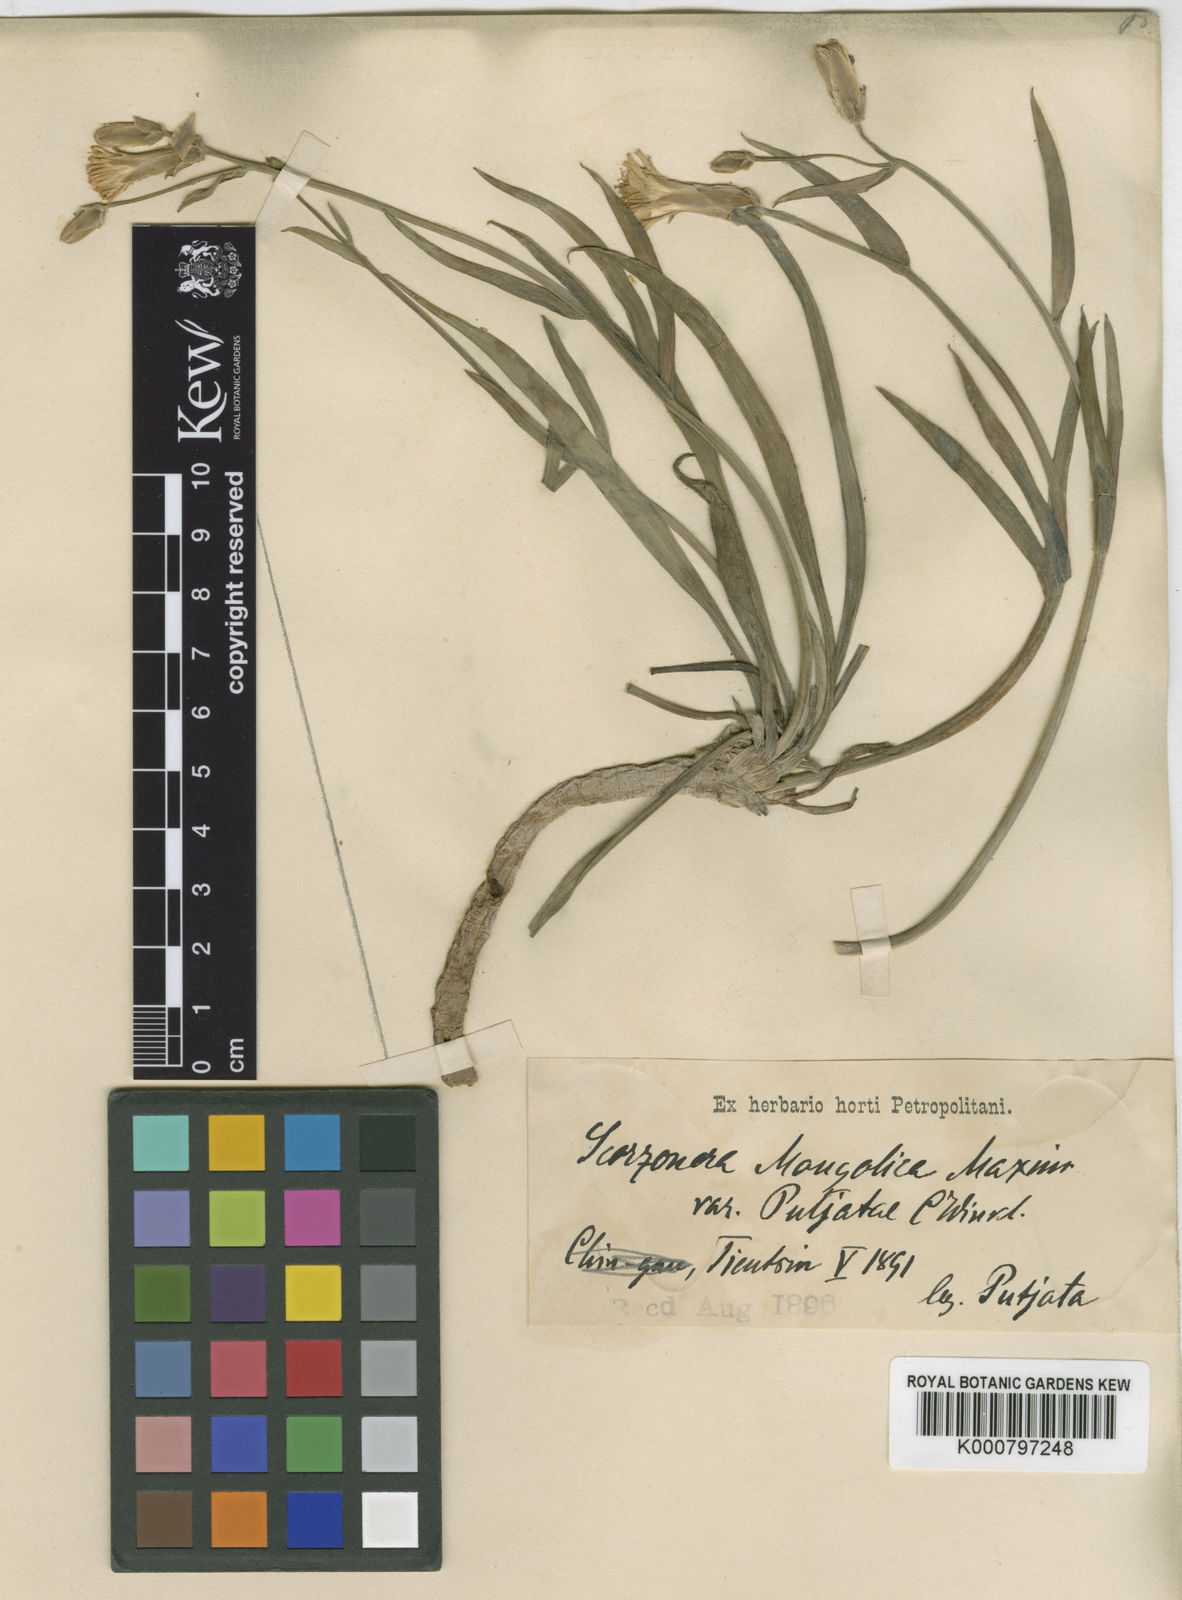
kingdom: Plantae
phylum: Tracheophyta
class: Magnoliopsida
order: Asterales
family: Asteraceae
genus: Takhtajaniantha
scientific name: Takhtajaniantha mongolica
